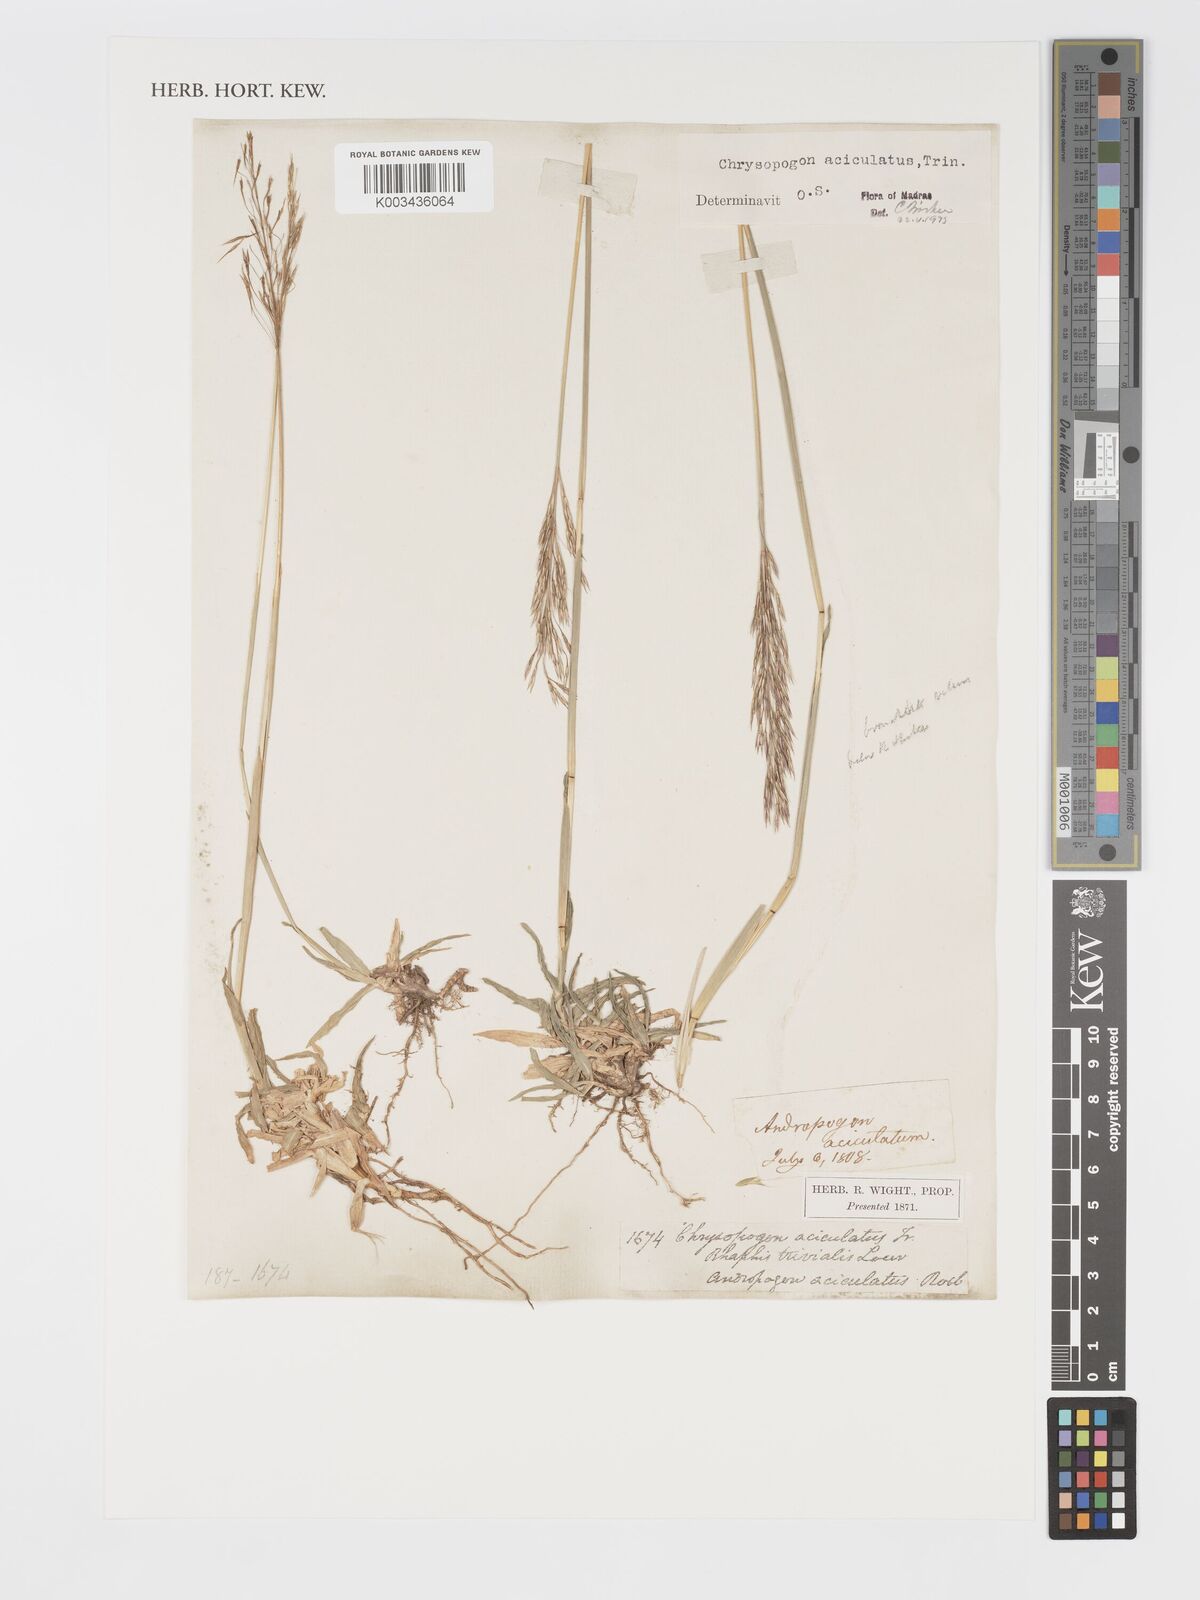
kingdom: Plantae
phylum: Tracheophyta
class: Liliopsida
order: Poales
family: Poaceae
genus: Chrysopogon
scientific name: Chrysopogon aciculatus
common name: Pilipiliula
